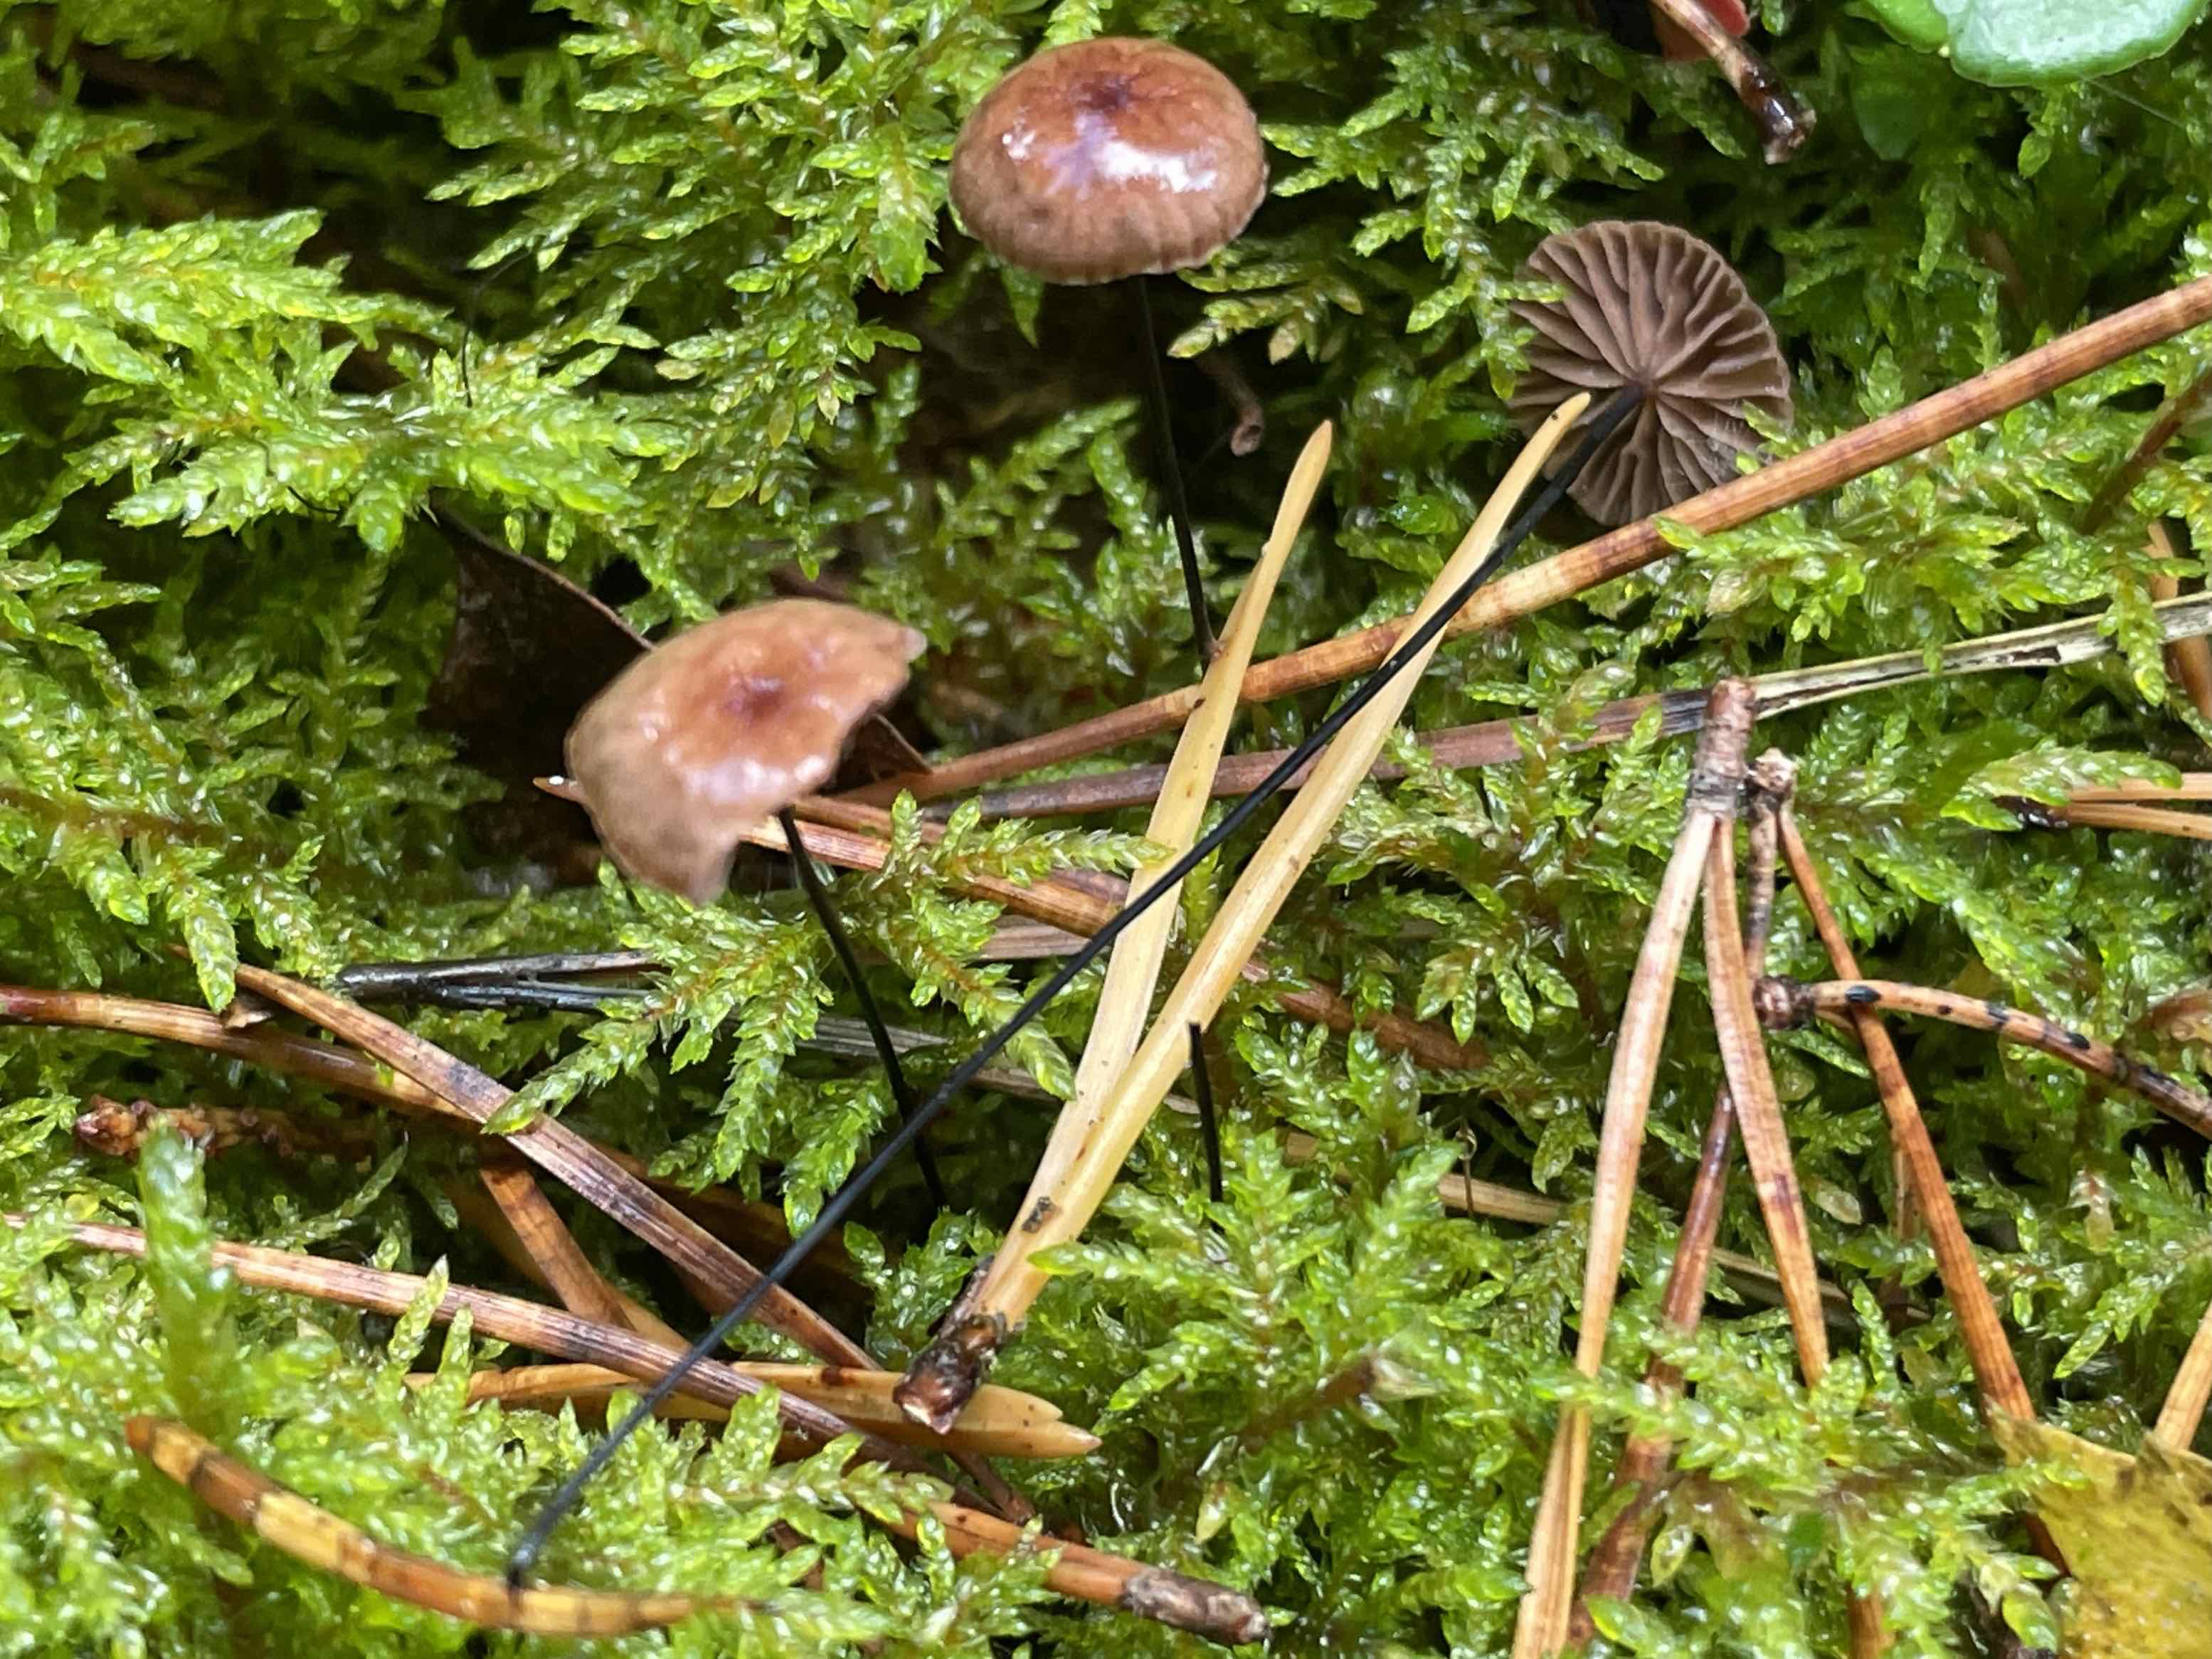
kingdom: Fungi
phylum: Basidiomycota
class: Agaricomycetes
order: Agaricales
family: Omphalotaceae
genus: Gymnopus
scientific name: Gymnopus androsaceus
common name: trådstokket fladhat
